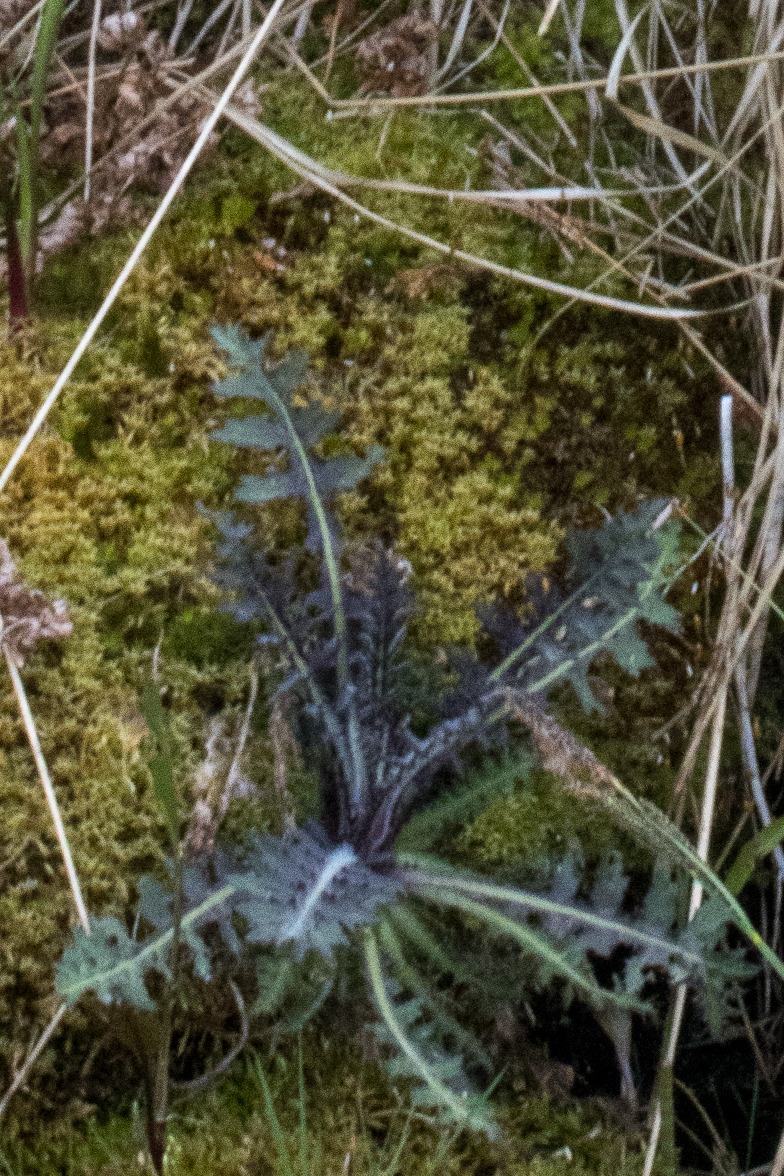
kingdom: Plantae
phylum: Tracheophyta
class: Magnoliopsida
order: Asterales
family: Asteraceae
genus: Cirsium
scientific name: Cirsium palustre
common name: Kær-tidsel
